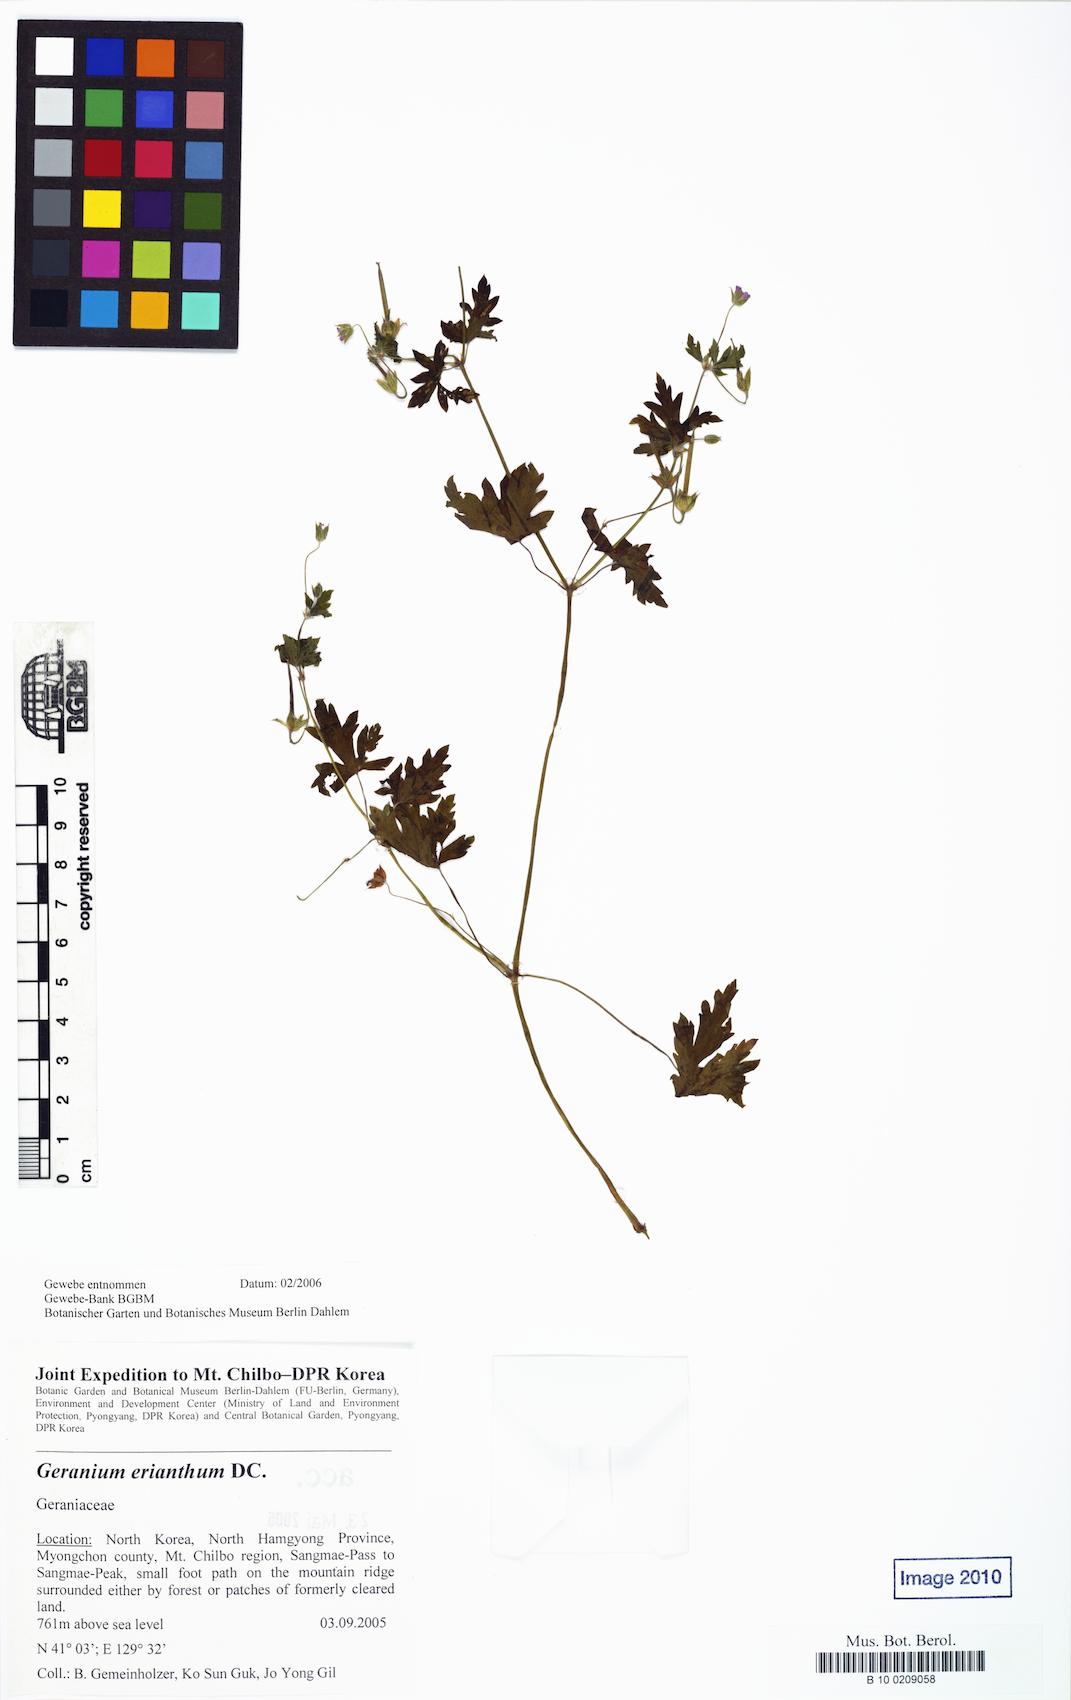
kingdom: Plantae
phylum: Tracheophyta
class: Magnoliopsida
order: Geraniales
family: Geraniaceae
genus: Geranium
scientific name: Geranium erianthum
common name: Northern crane's-bill
